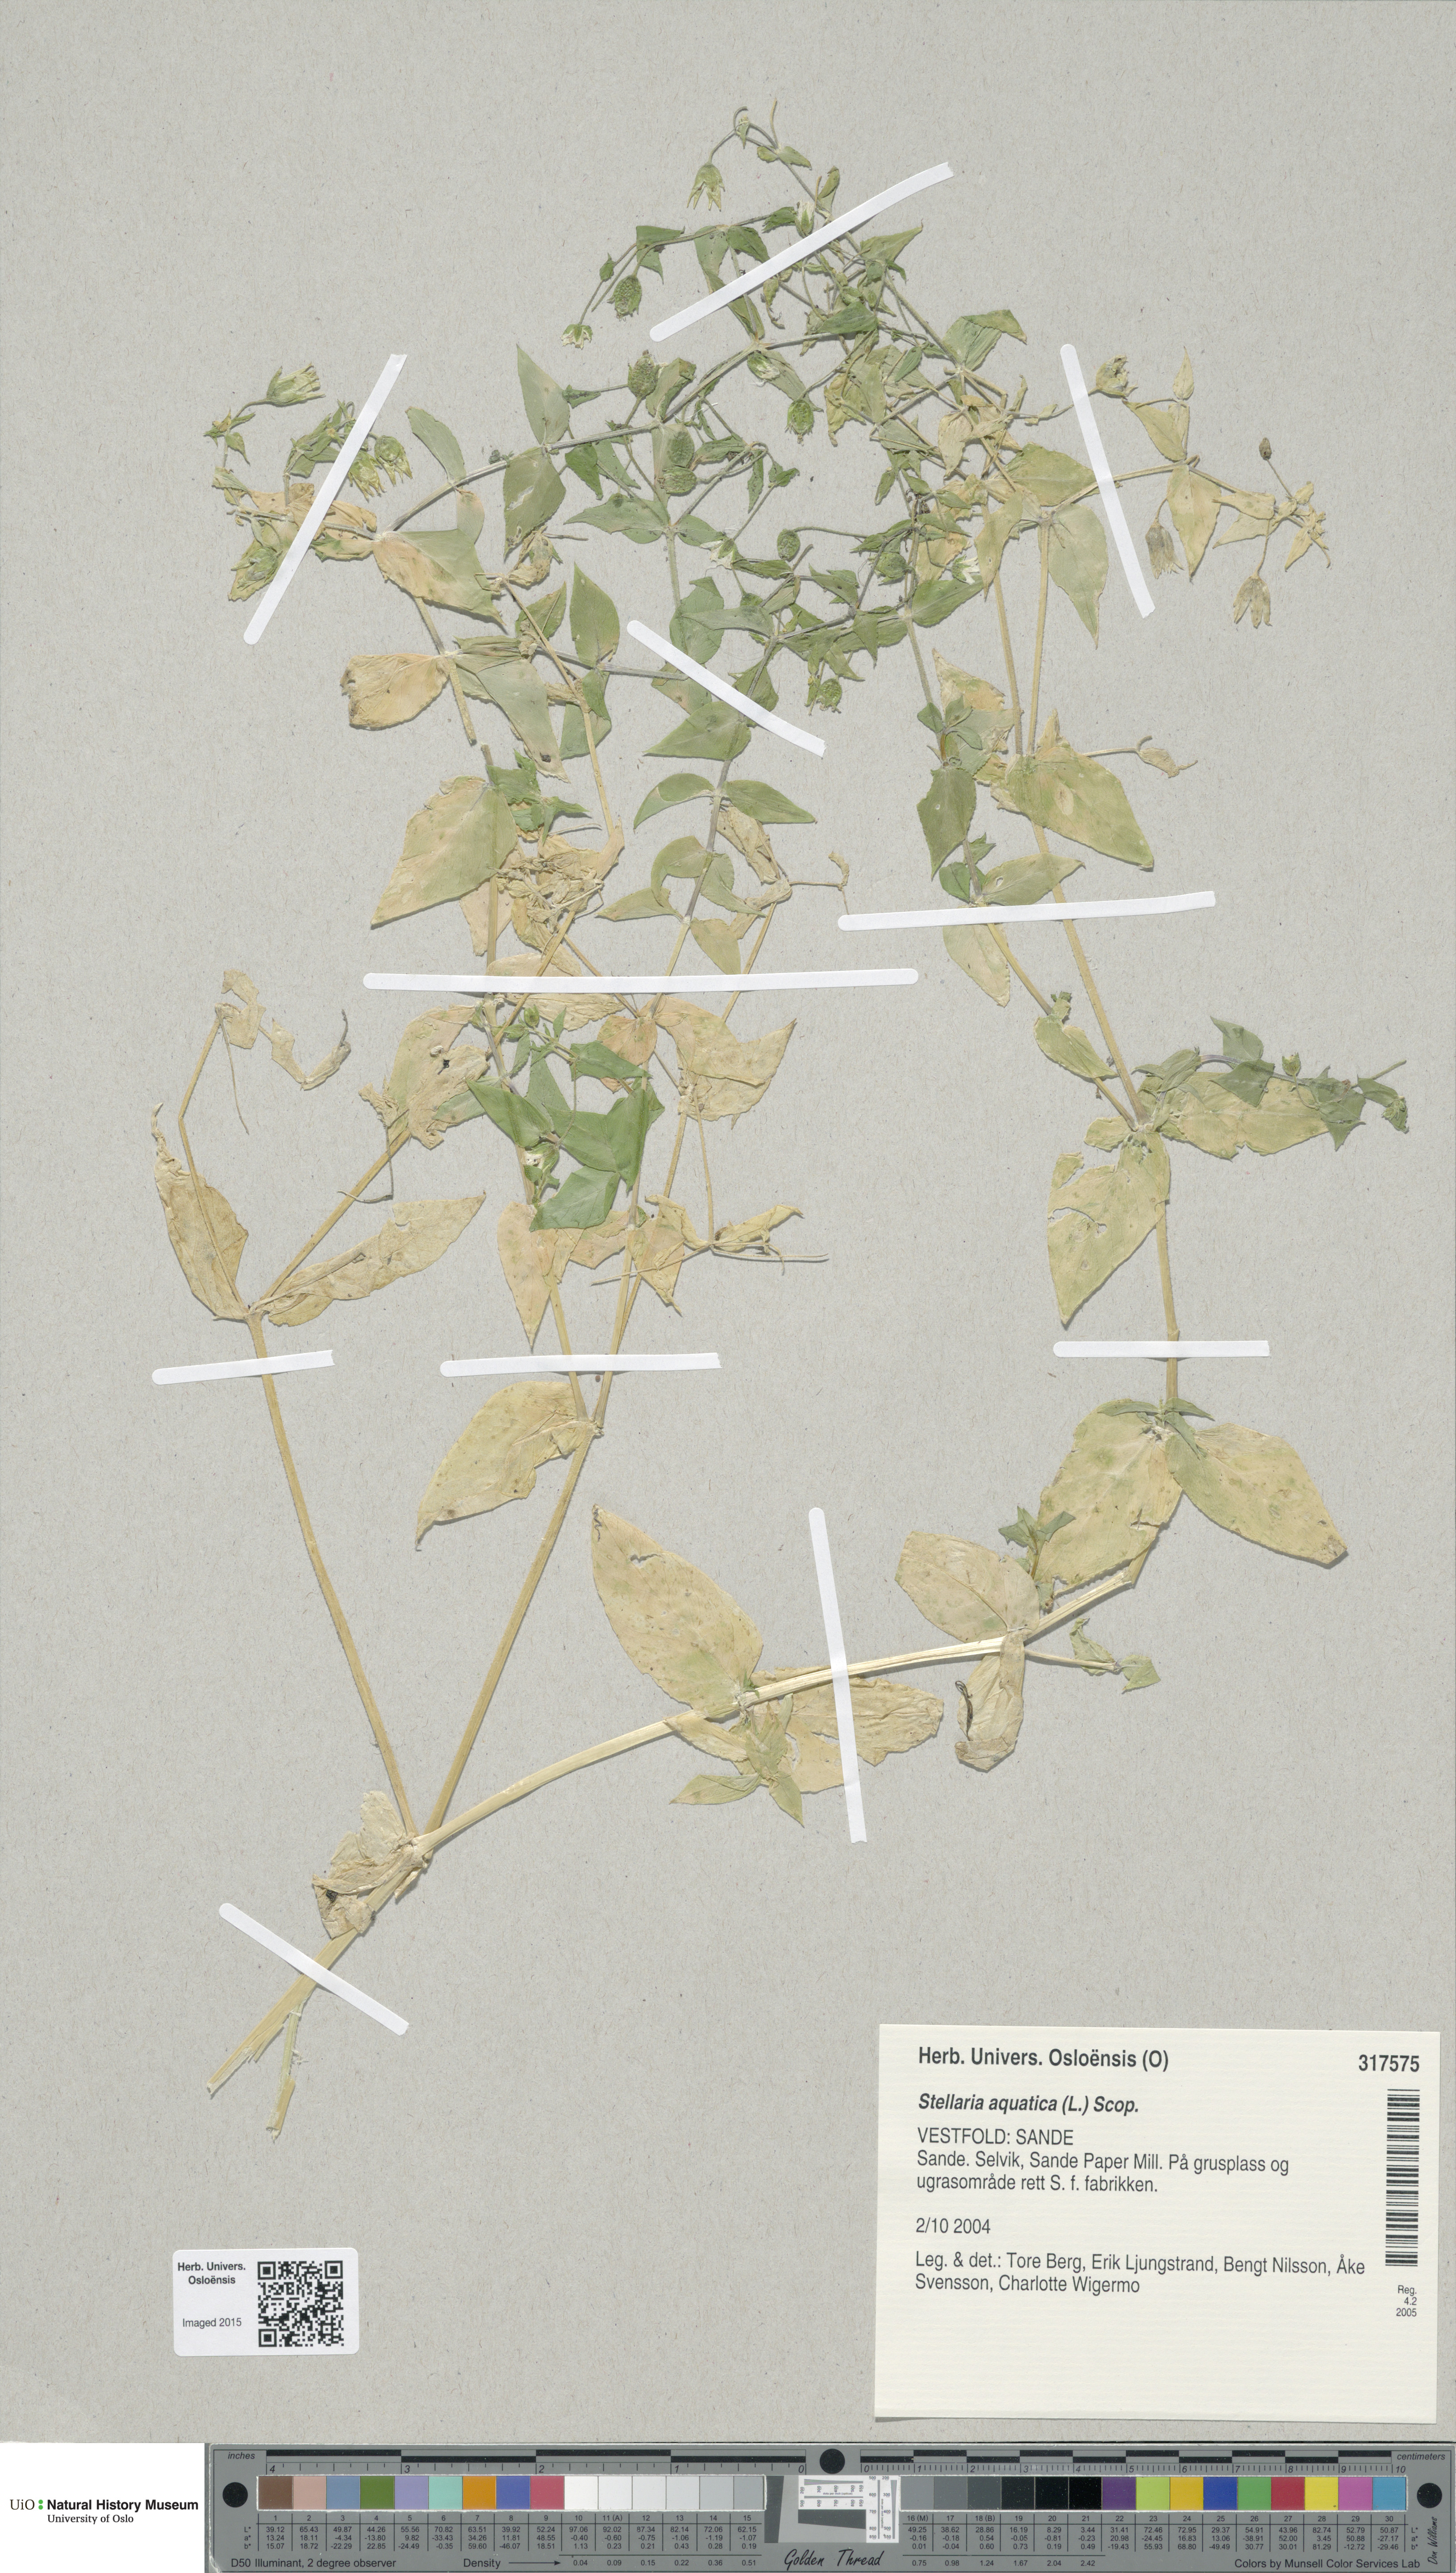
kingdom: Plantae
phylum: Tracheophyta
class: Magnoliopsida
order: Caryophyllales
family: Caryophyllaceae
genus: Stellaria
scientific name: Stellaria aquatica
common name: Water chickweed
